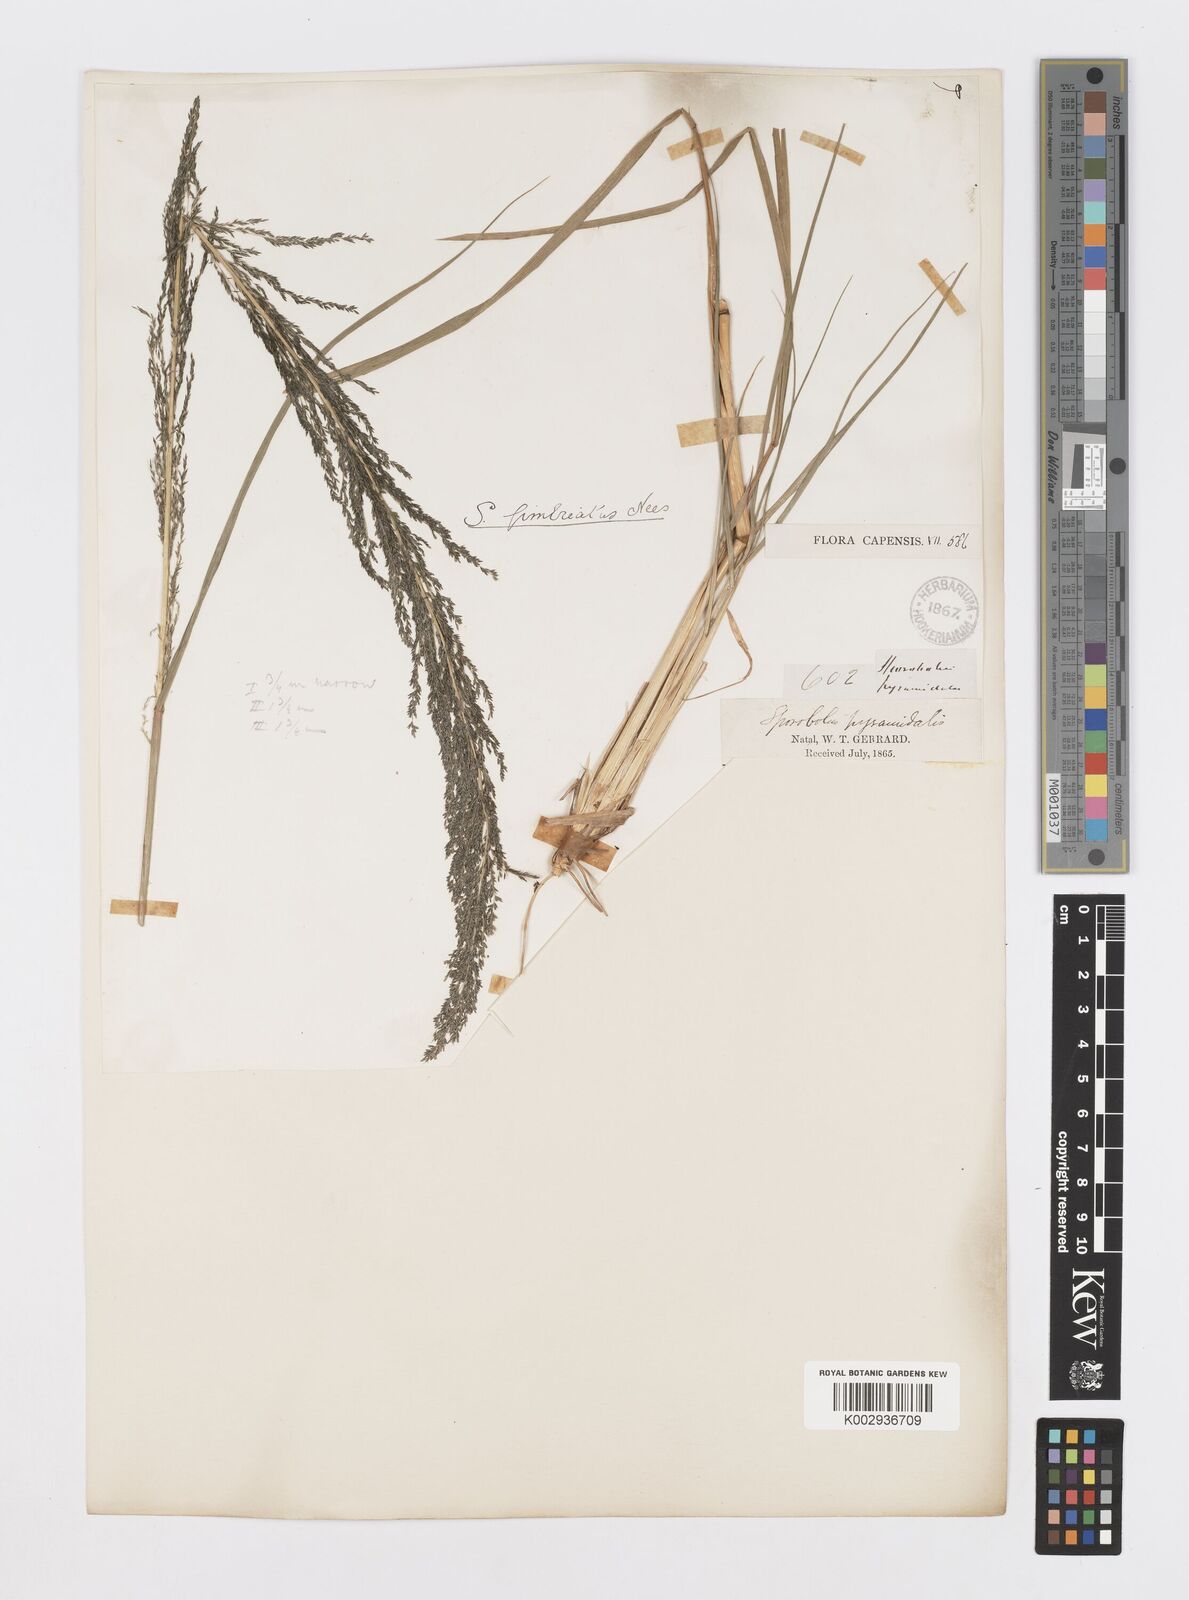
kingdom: Plantae
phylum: Tracheophyta
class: Liliopsida
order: Poales
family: Poaceae
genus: Sporobolus
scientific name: Sporobolus fimbriatus
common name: Fringed dropseed
